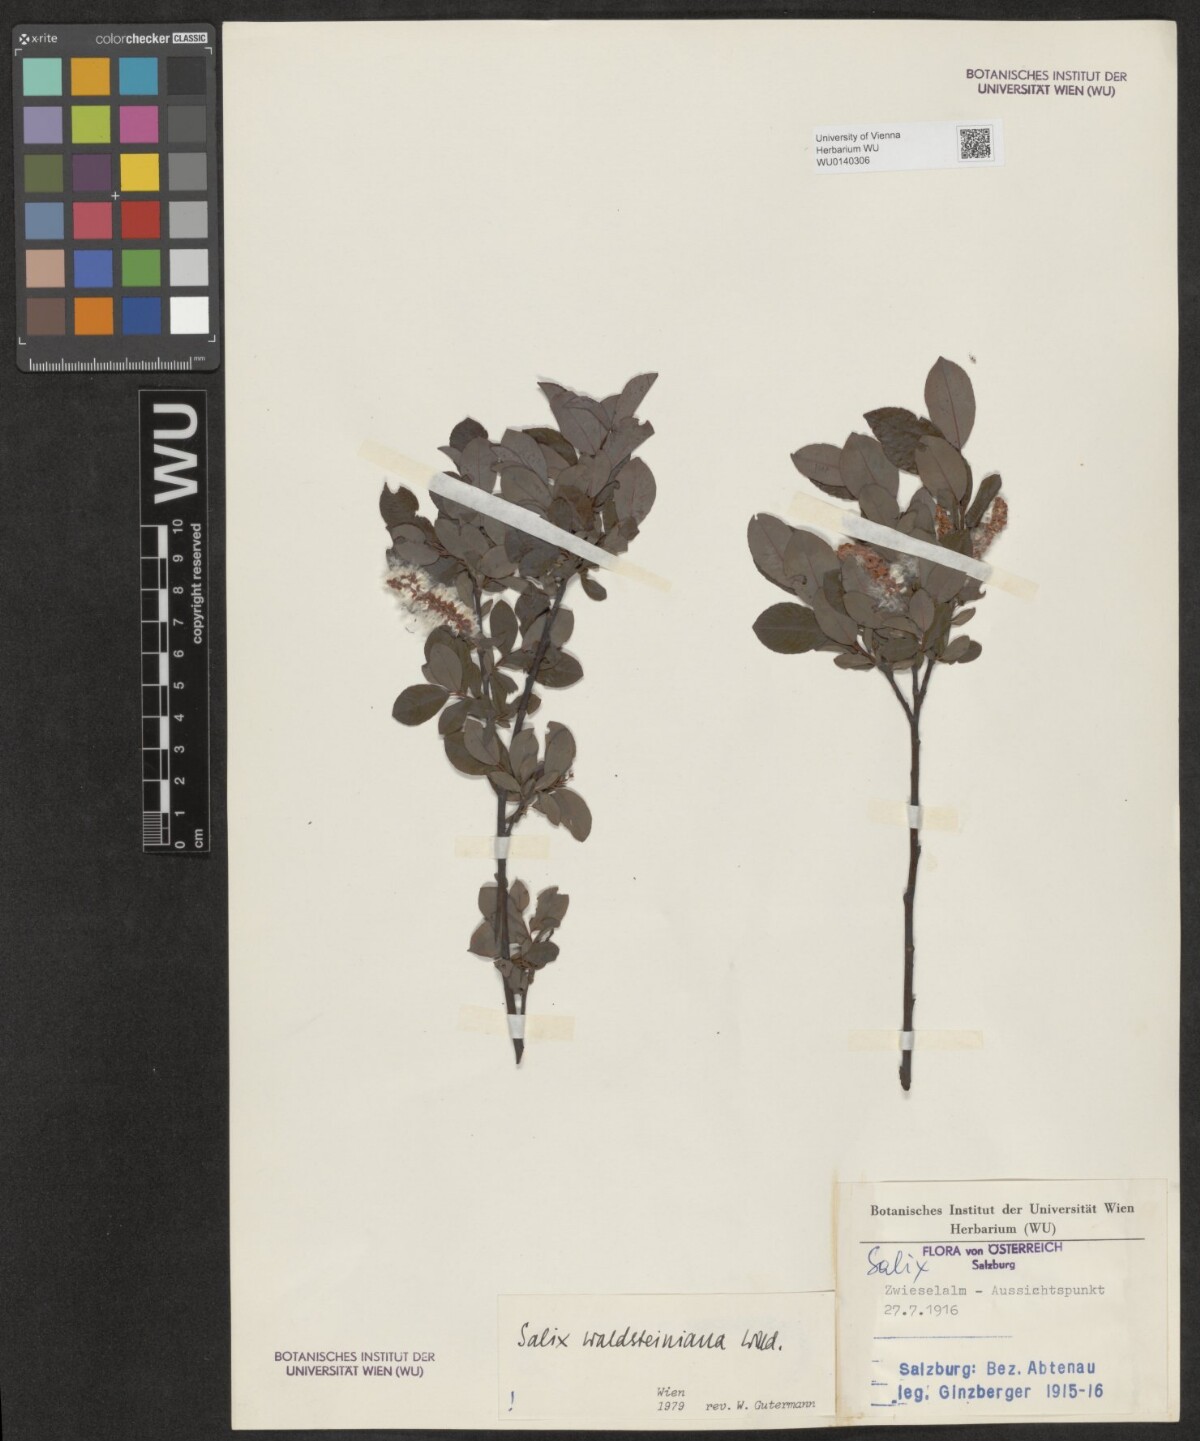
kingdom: Plantae
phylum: Tracheophyta
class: Magnoliopsida
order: Malpighiales
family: Salicaceae
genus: Salix
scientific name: Salix waldsteiniana
